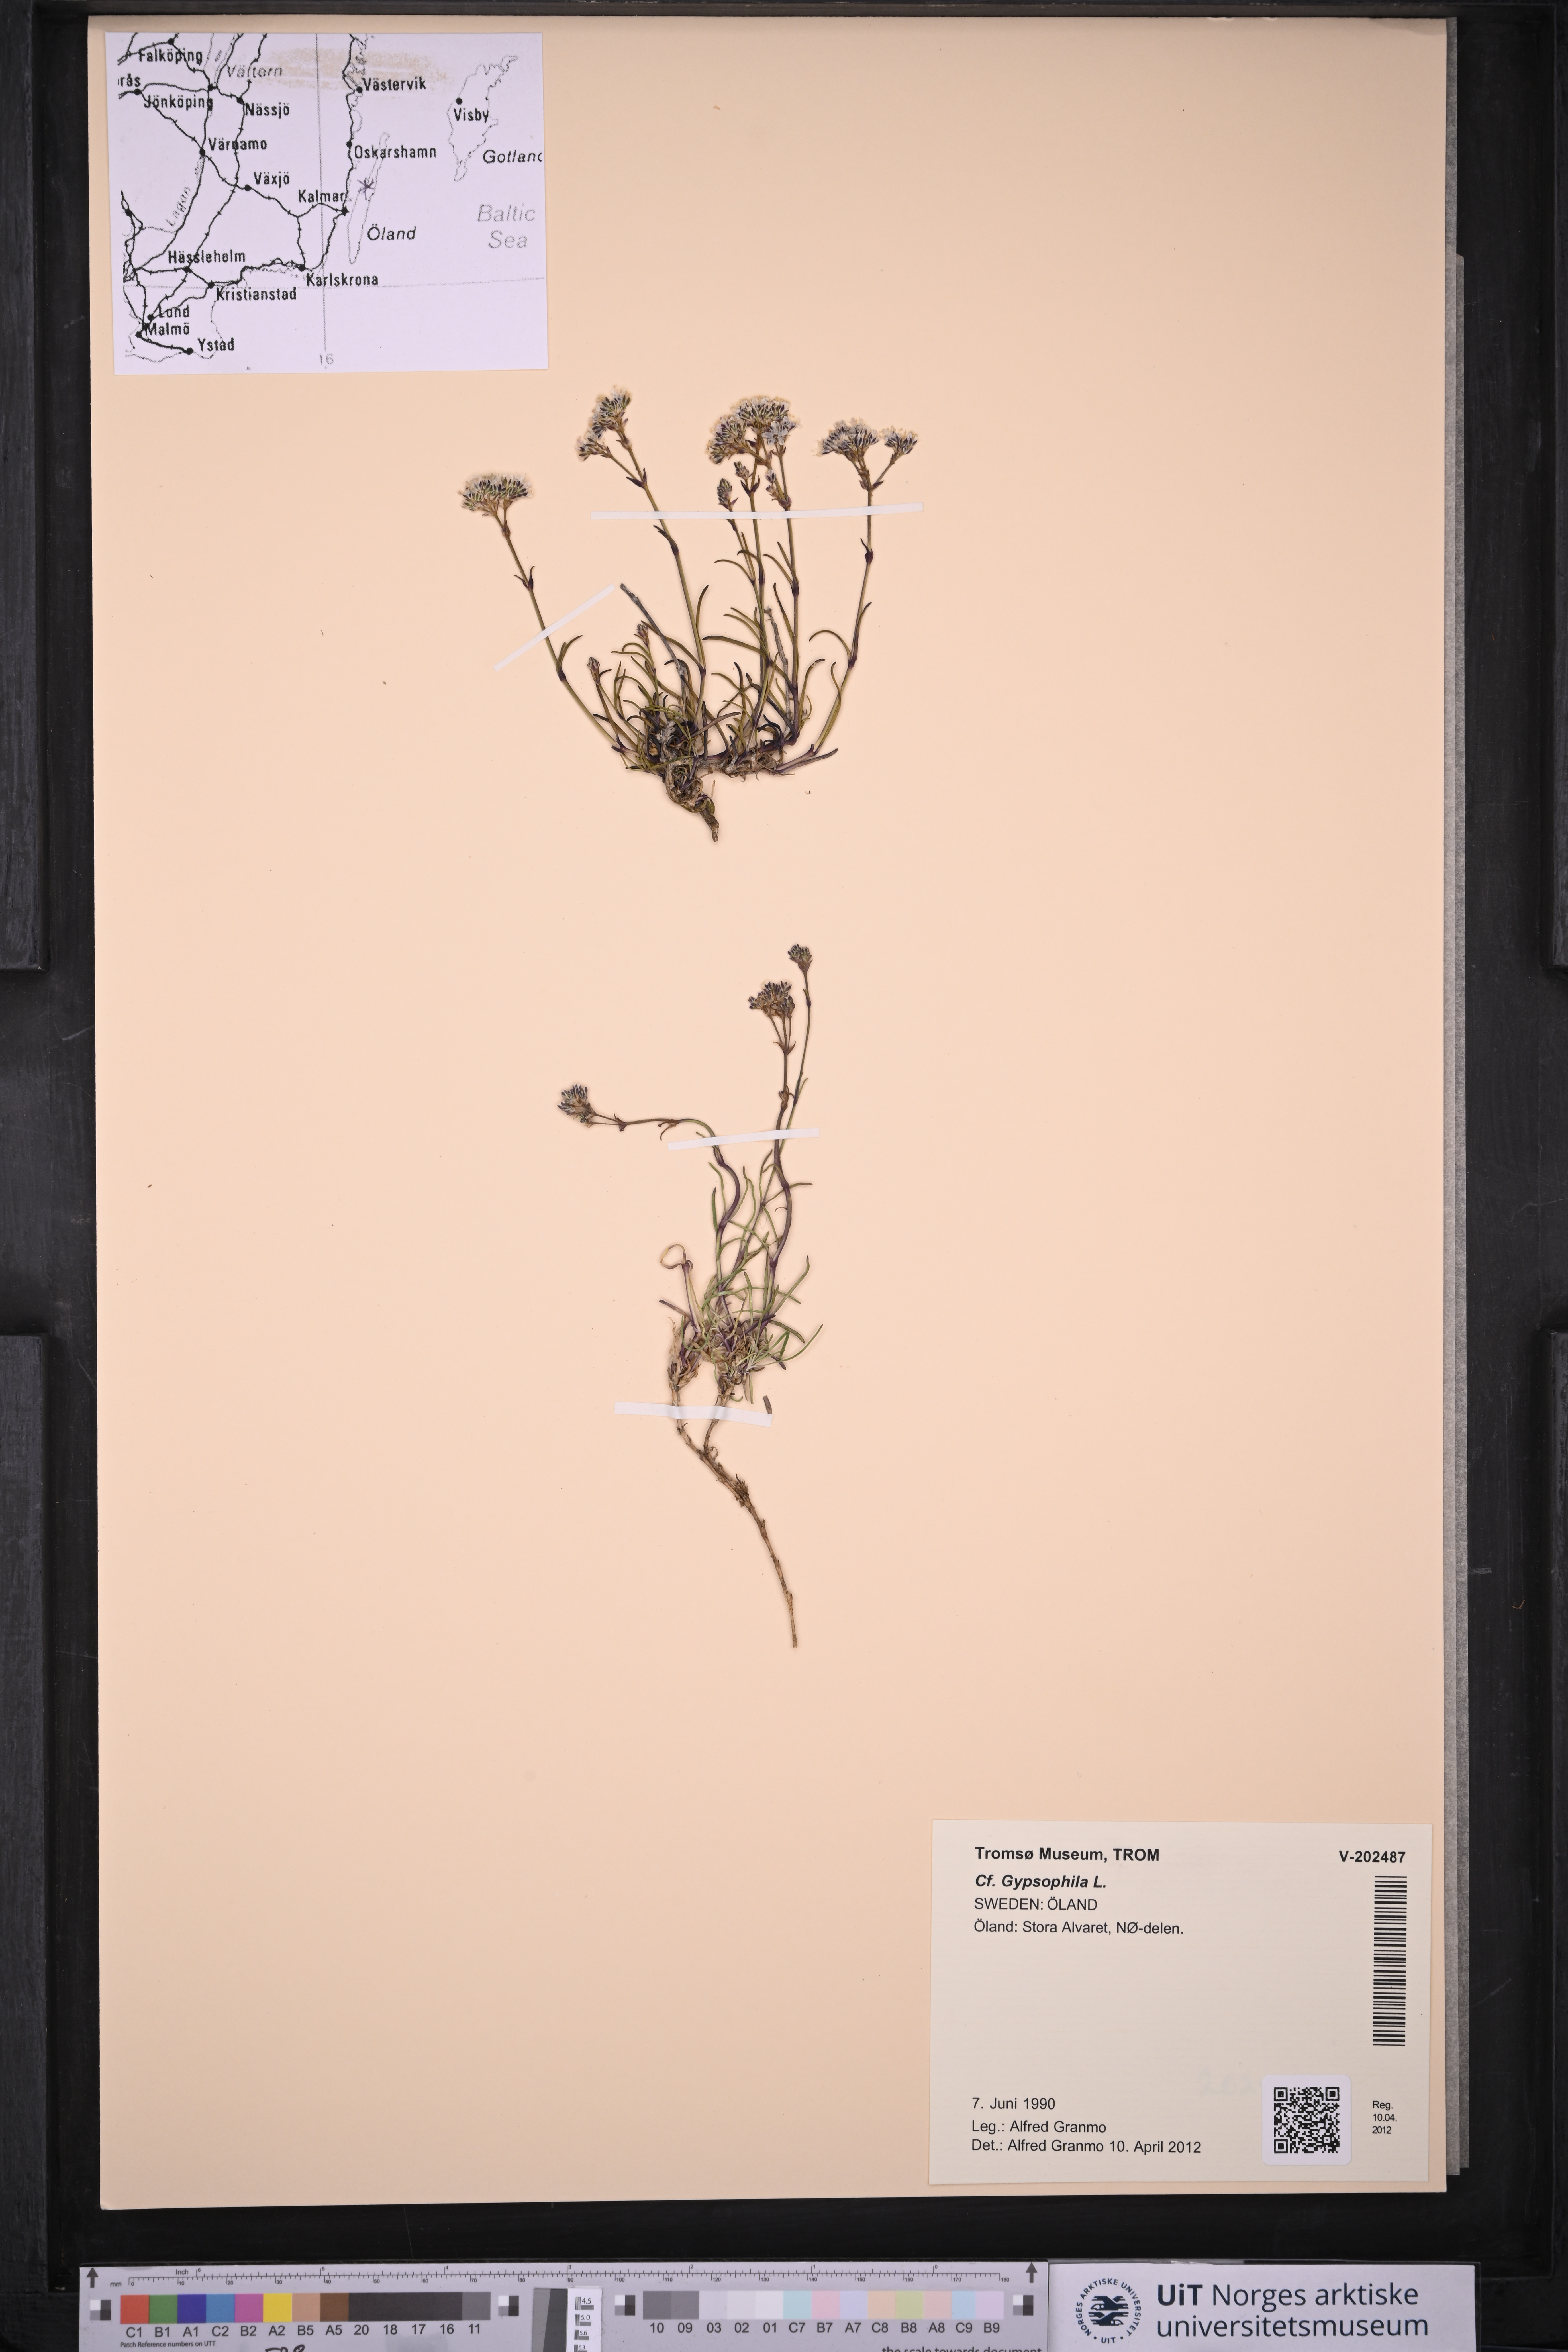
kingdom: Plantae
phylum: Tracheophyta
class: Magnoliopsida
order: Caryophyllales
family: Caryophyllaceae
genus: Gypsophila
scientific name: Gypsophila
